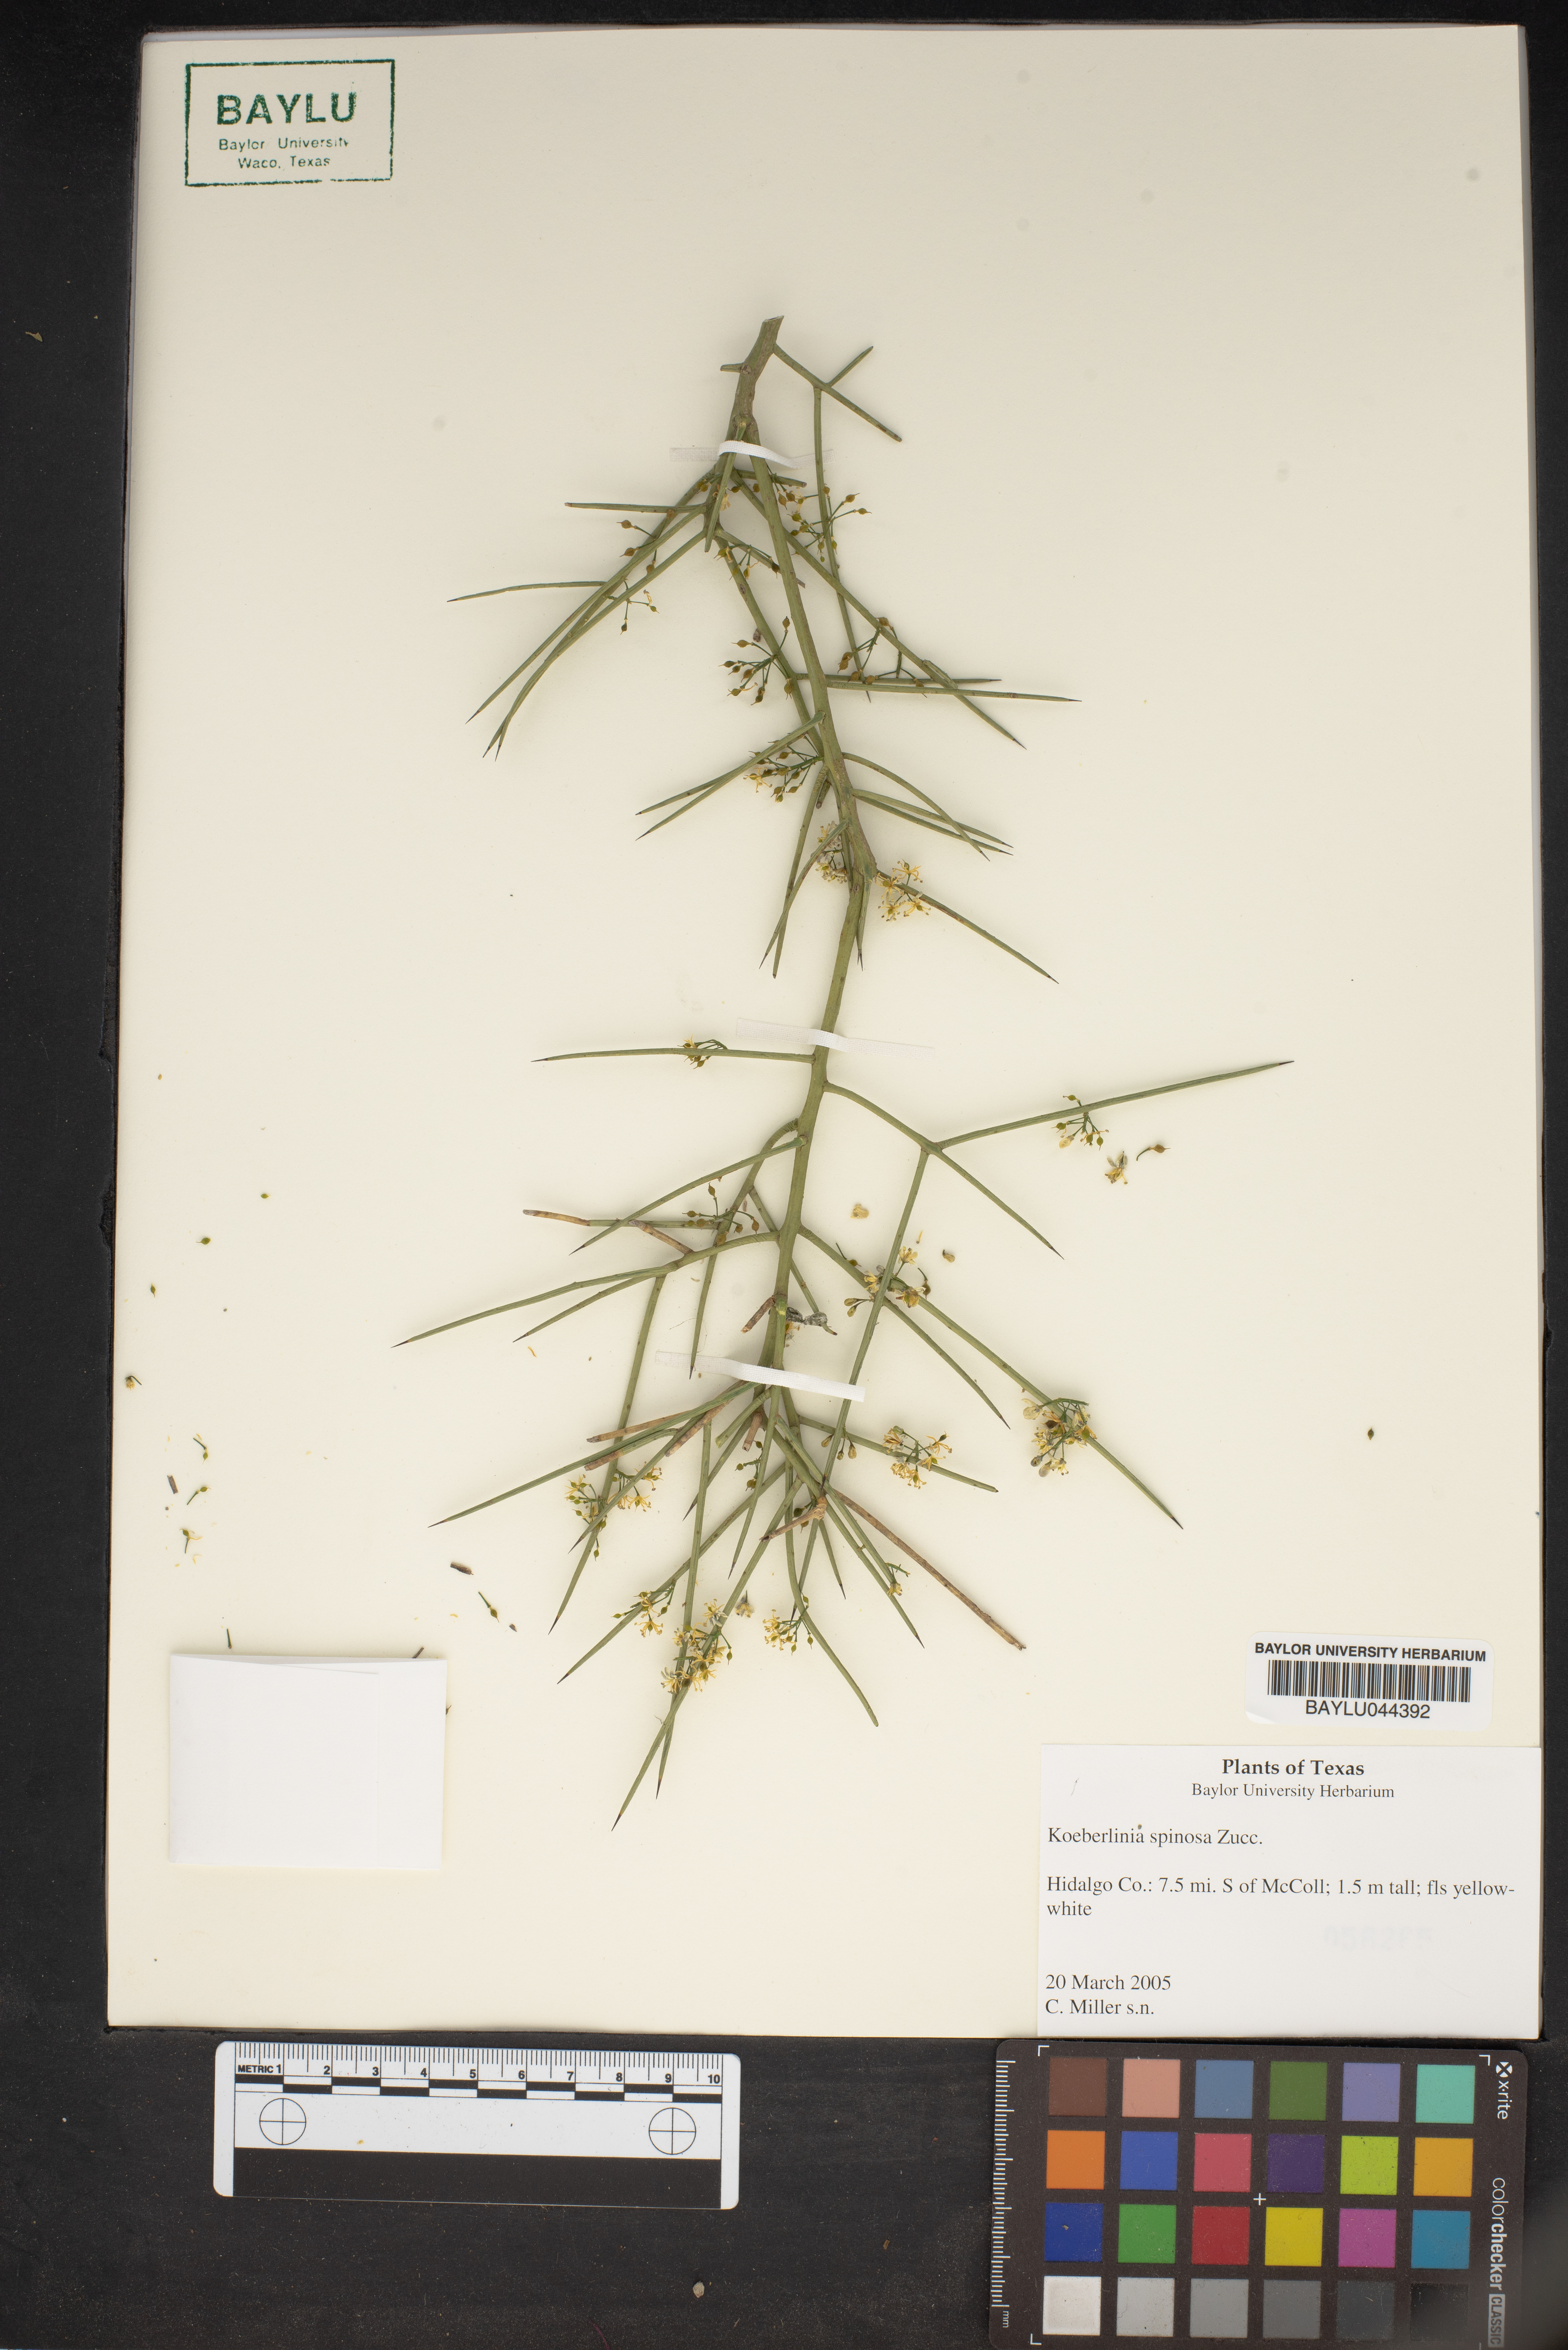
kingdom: Plantae
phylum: Tracheophyta
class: Magnoliopsida
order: Brassicales
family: Koeberliniaceae
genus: Koeberlinia
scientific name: Koeberlinia spinosa
